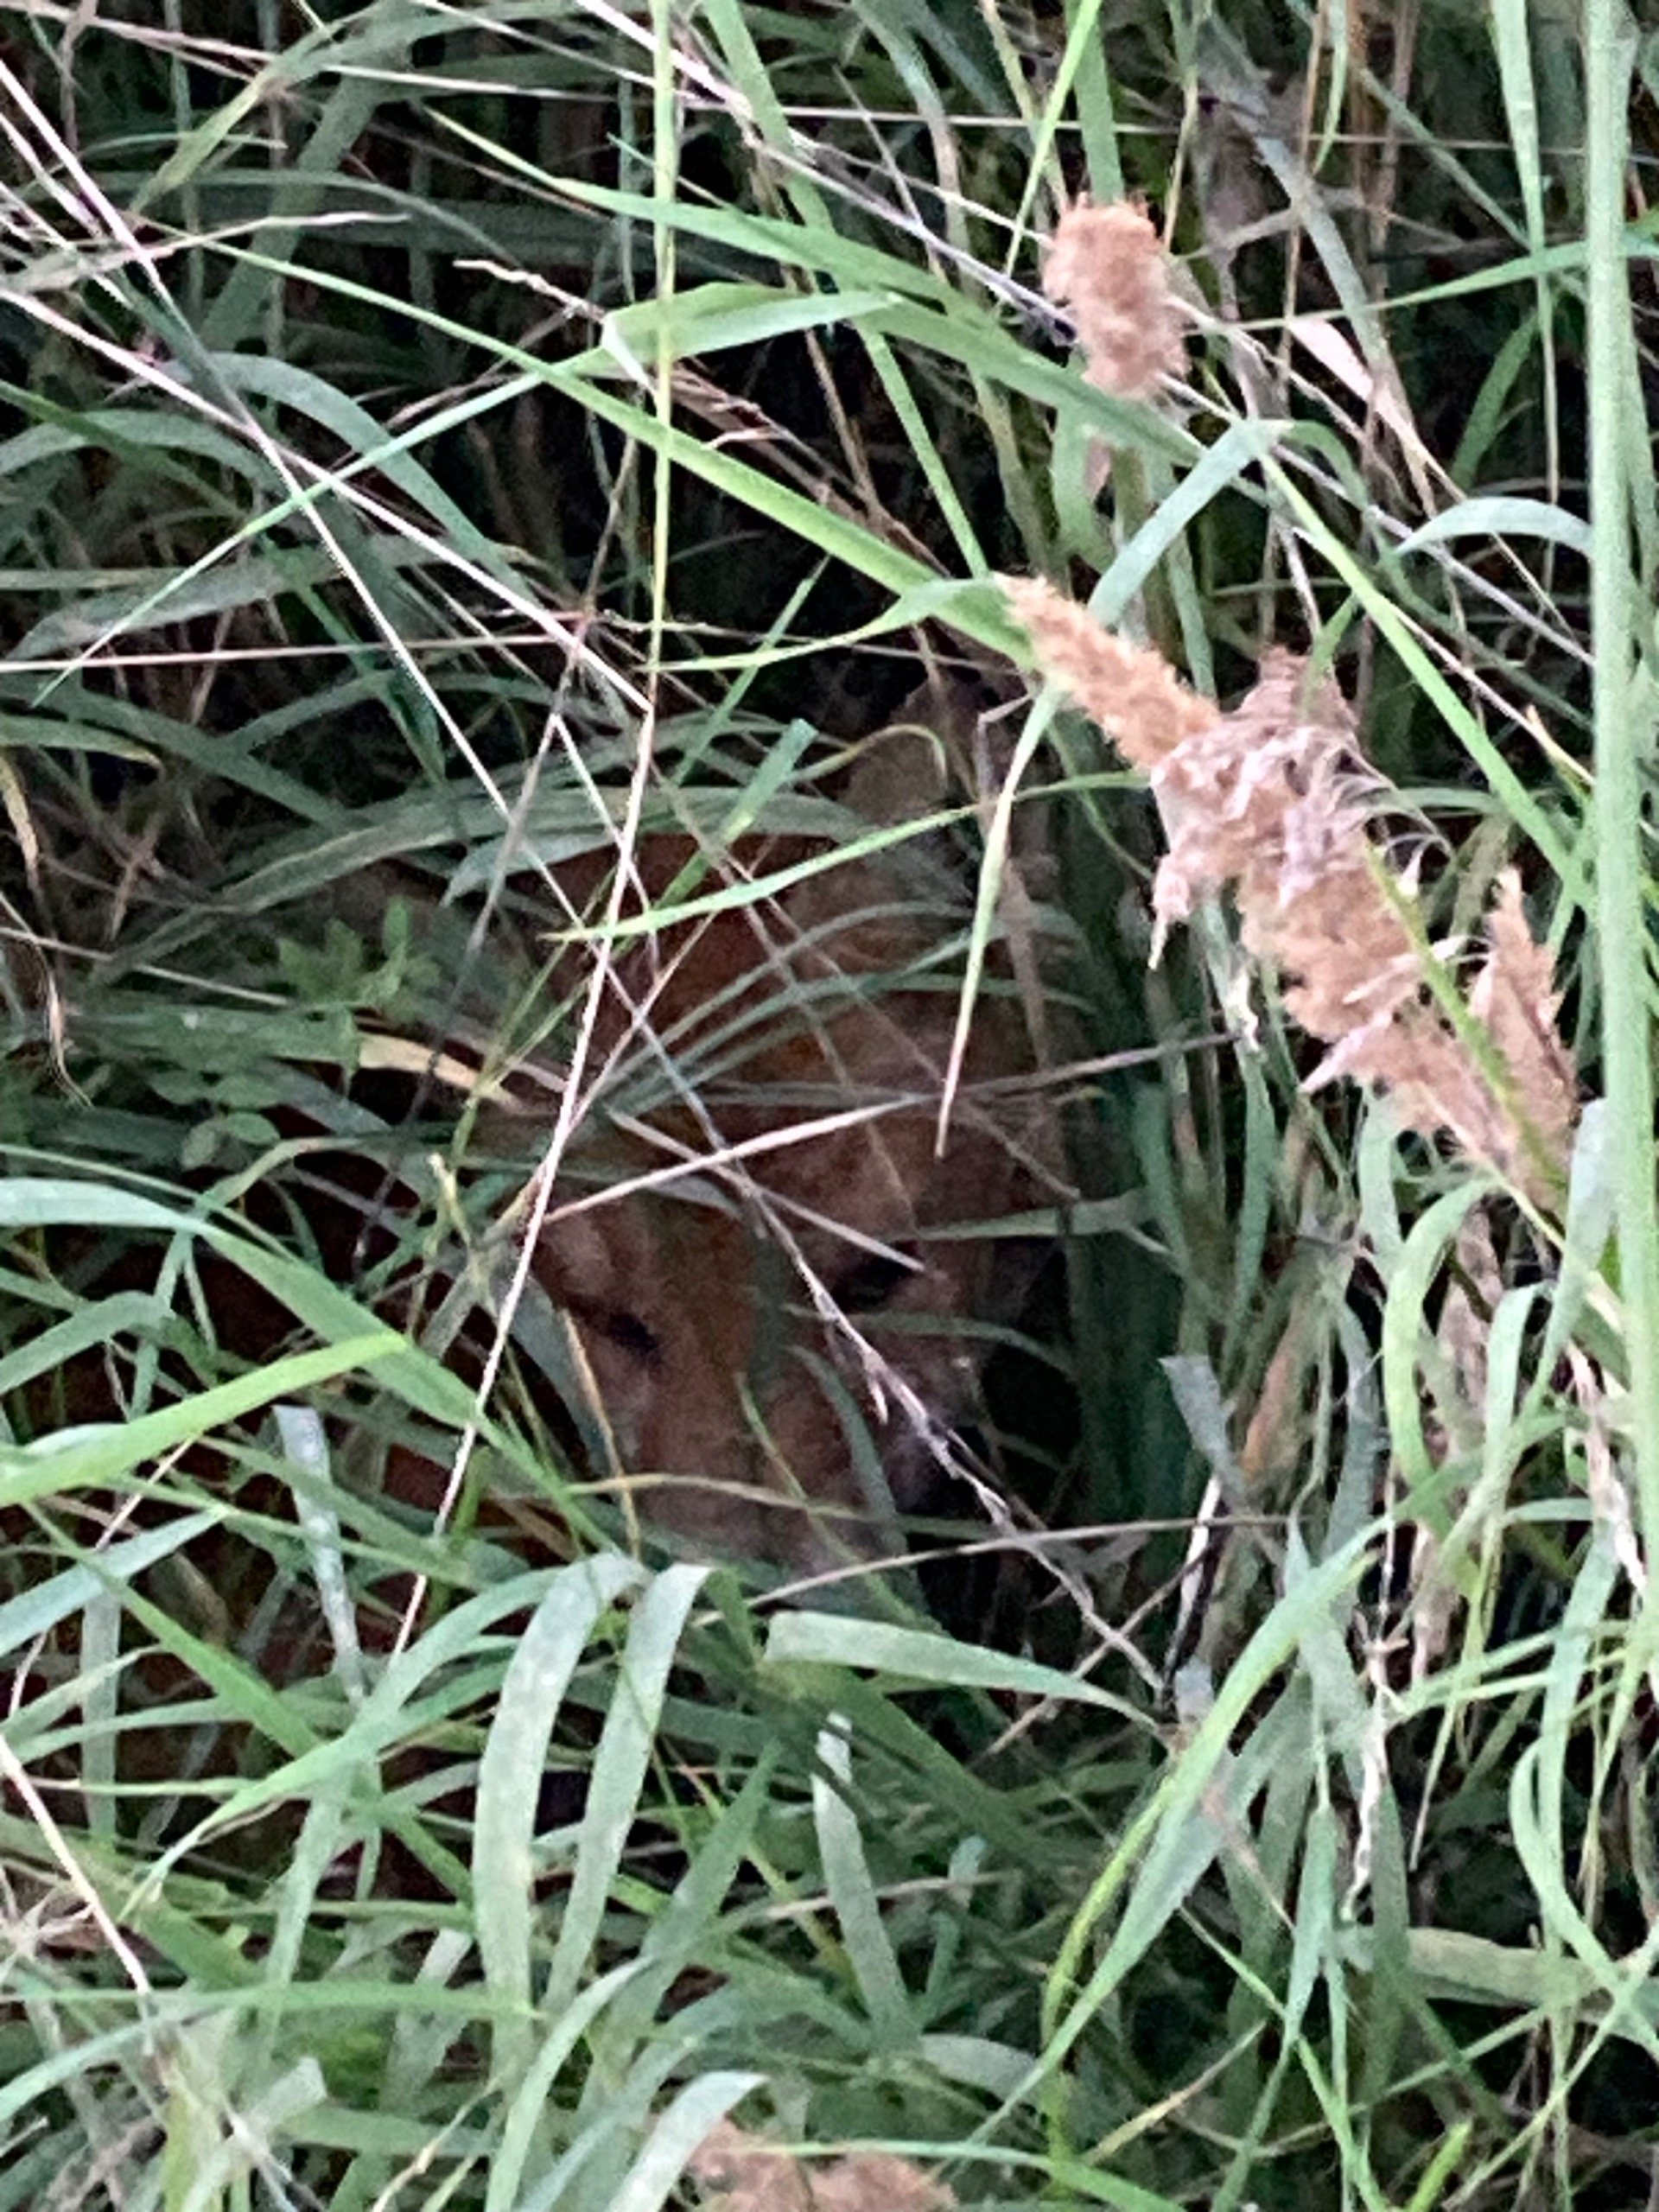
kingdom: Animalia
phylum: Chordata
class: Mammalia
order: Carnivora
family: Canidae
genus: Vulpes
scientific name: Vulpes vulpes
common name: Ræv
